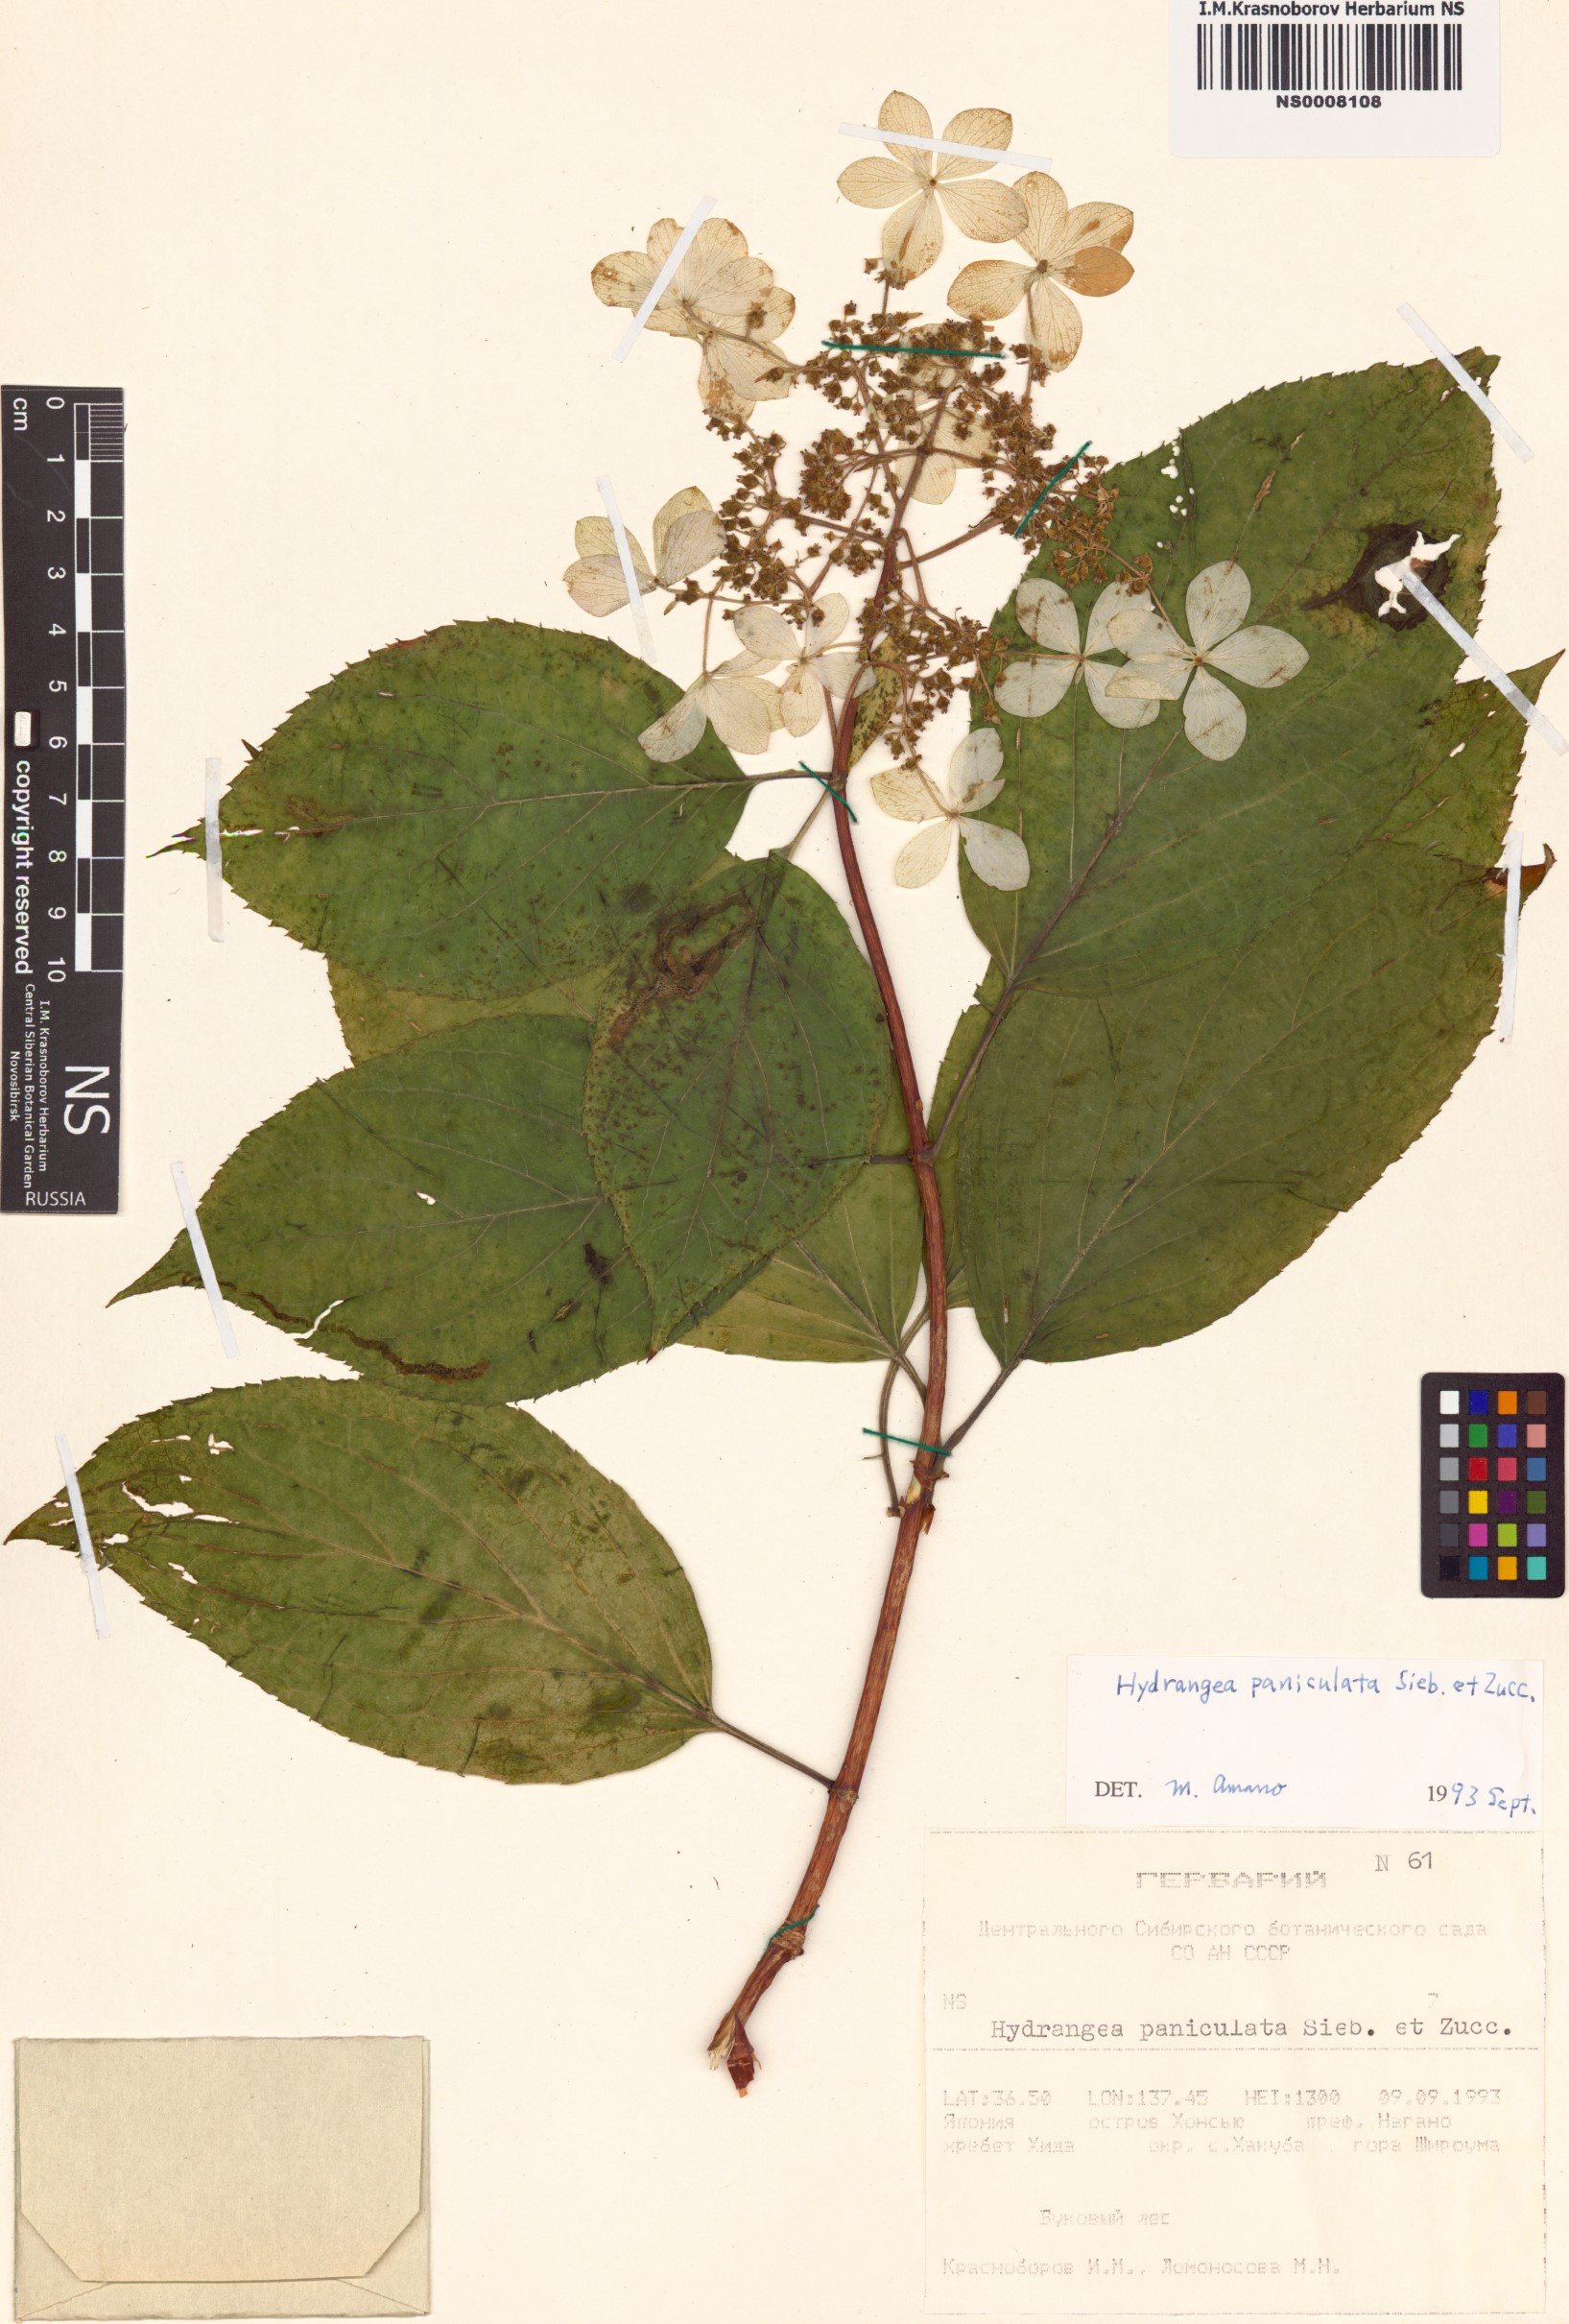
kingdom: Plantae
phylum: Tracheophyta
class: Magnoliopsida
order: Cornales
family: Hydrangeaceae
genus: Hydrangea
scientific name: Hydrangea paniculata
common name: Panicled hydrangea
